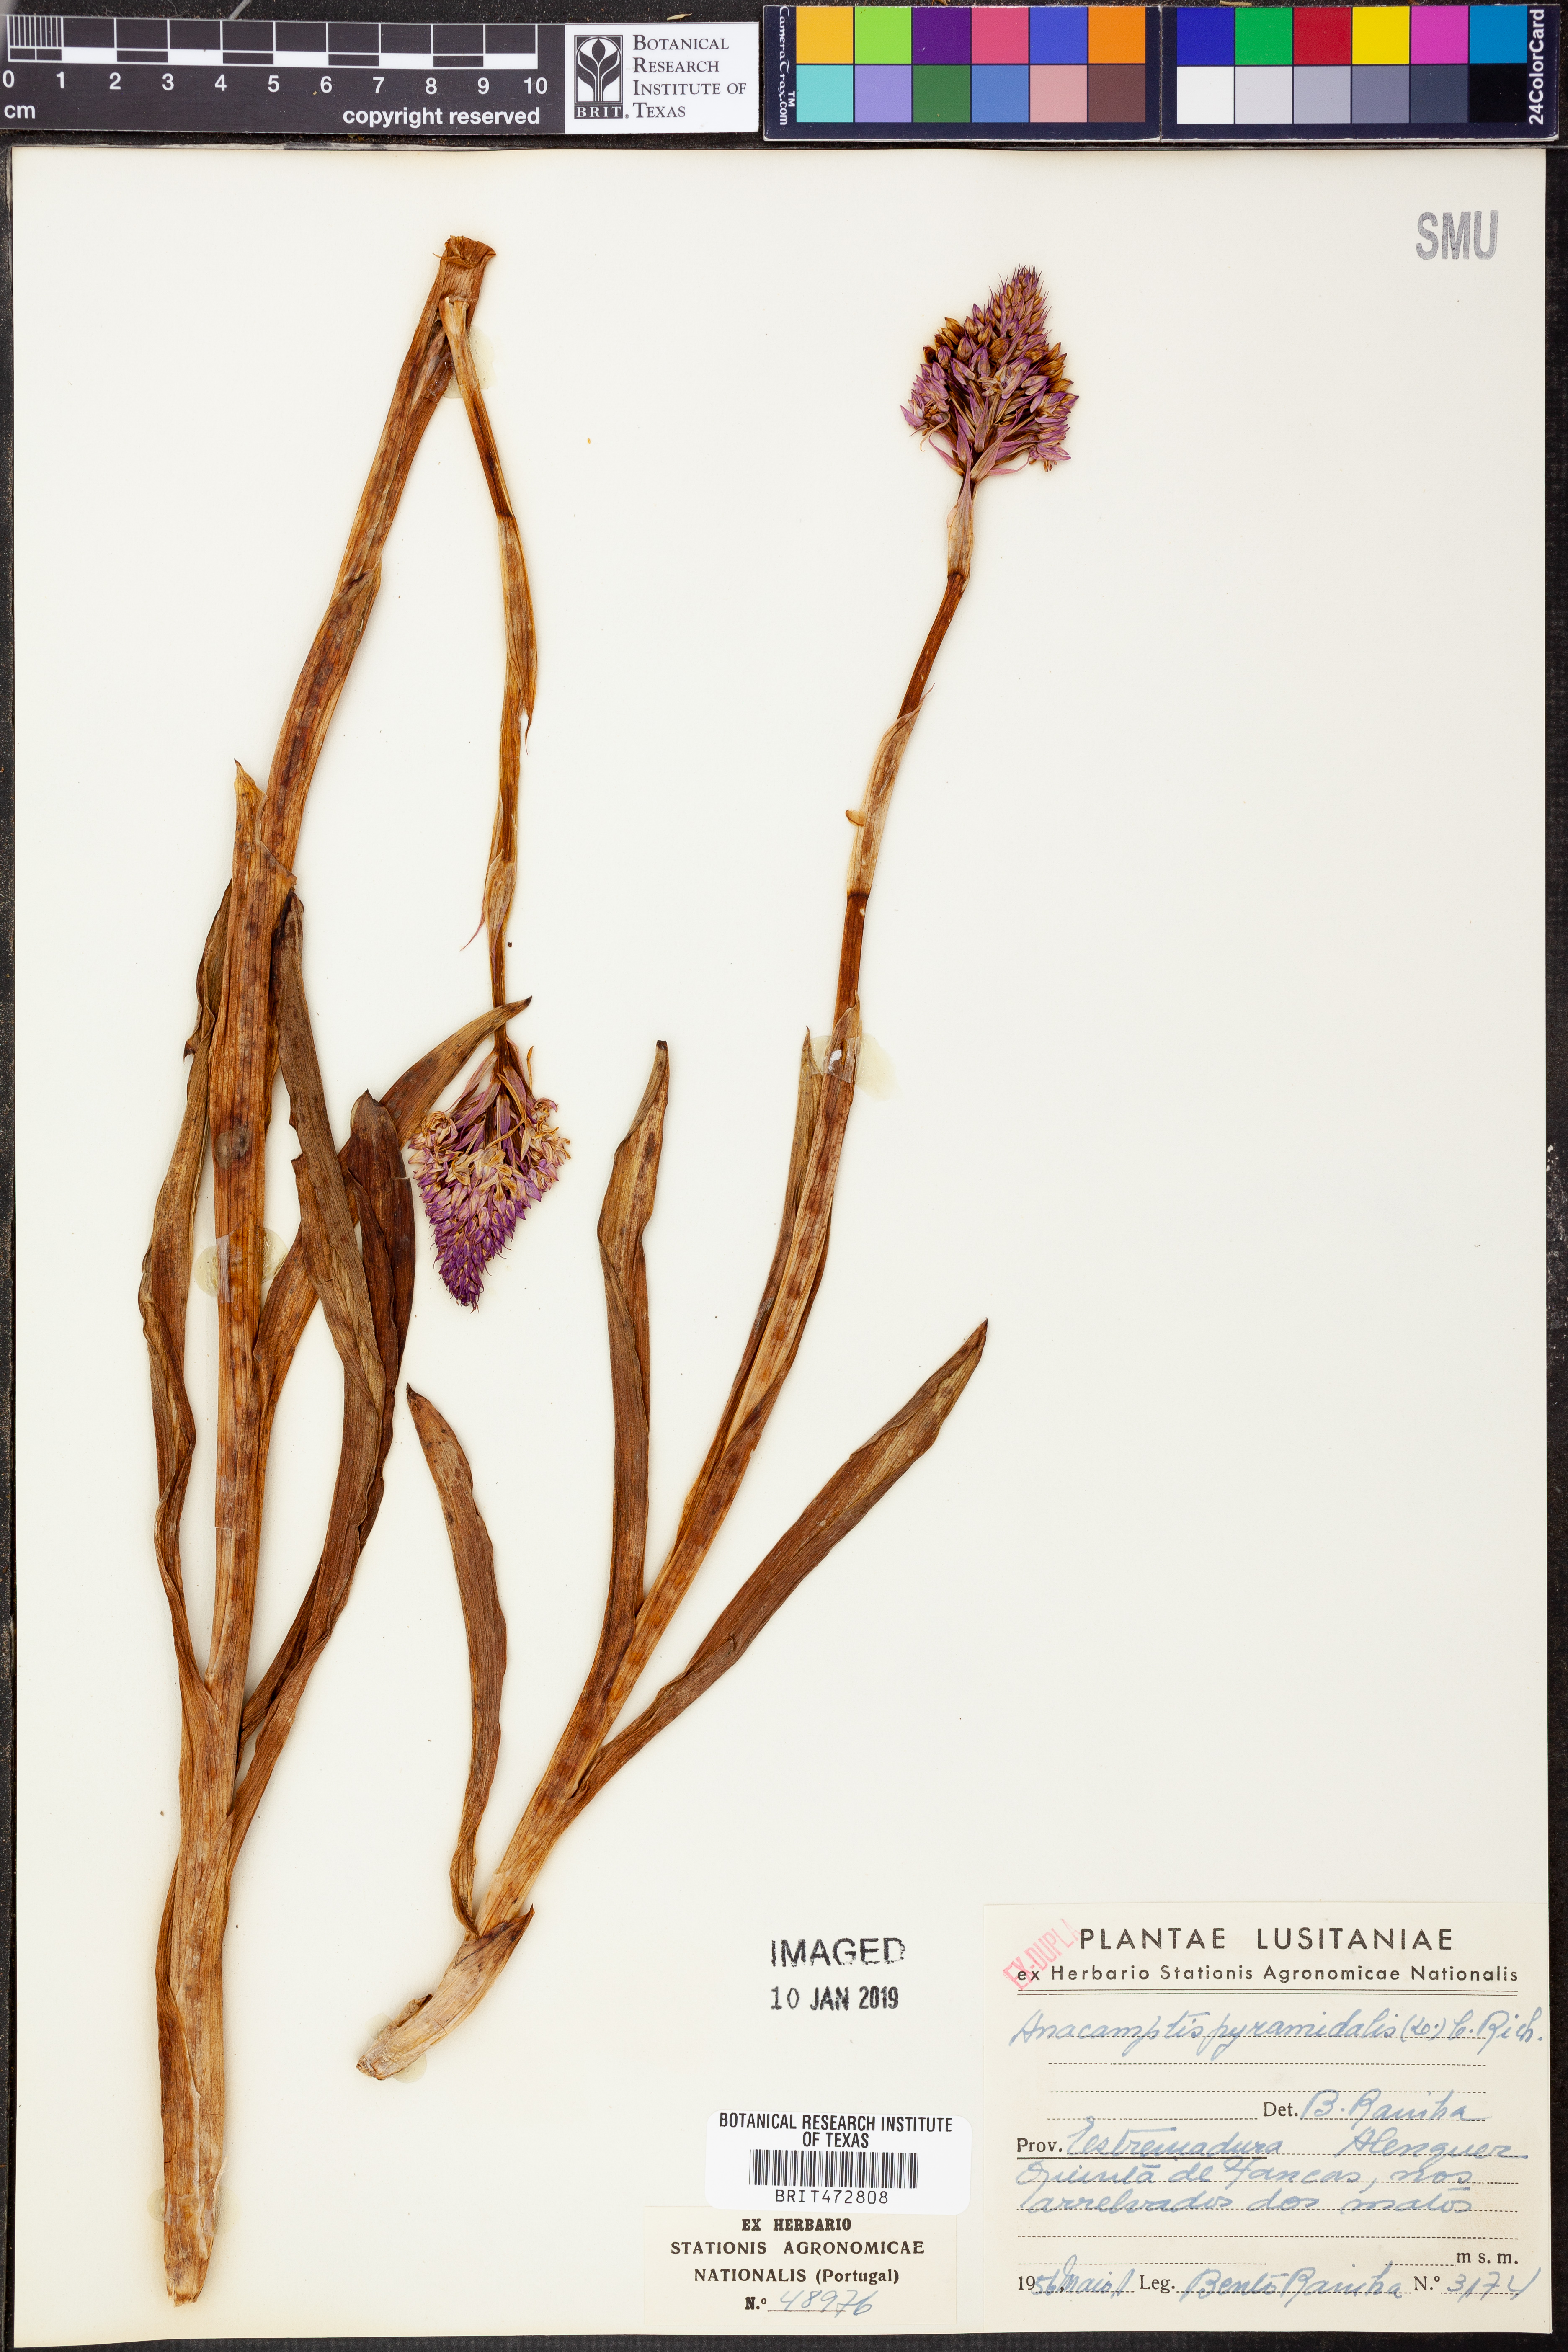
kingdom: Plantae
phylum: Tracheophyta
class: Liliopsida
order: Asparagales
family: Orchidaceae
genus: Anacamptis
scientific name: Anacamptis pyramidalis
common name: Pyramidal orchid
